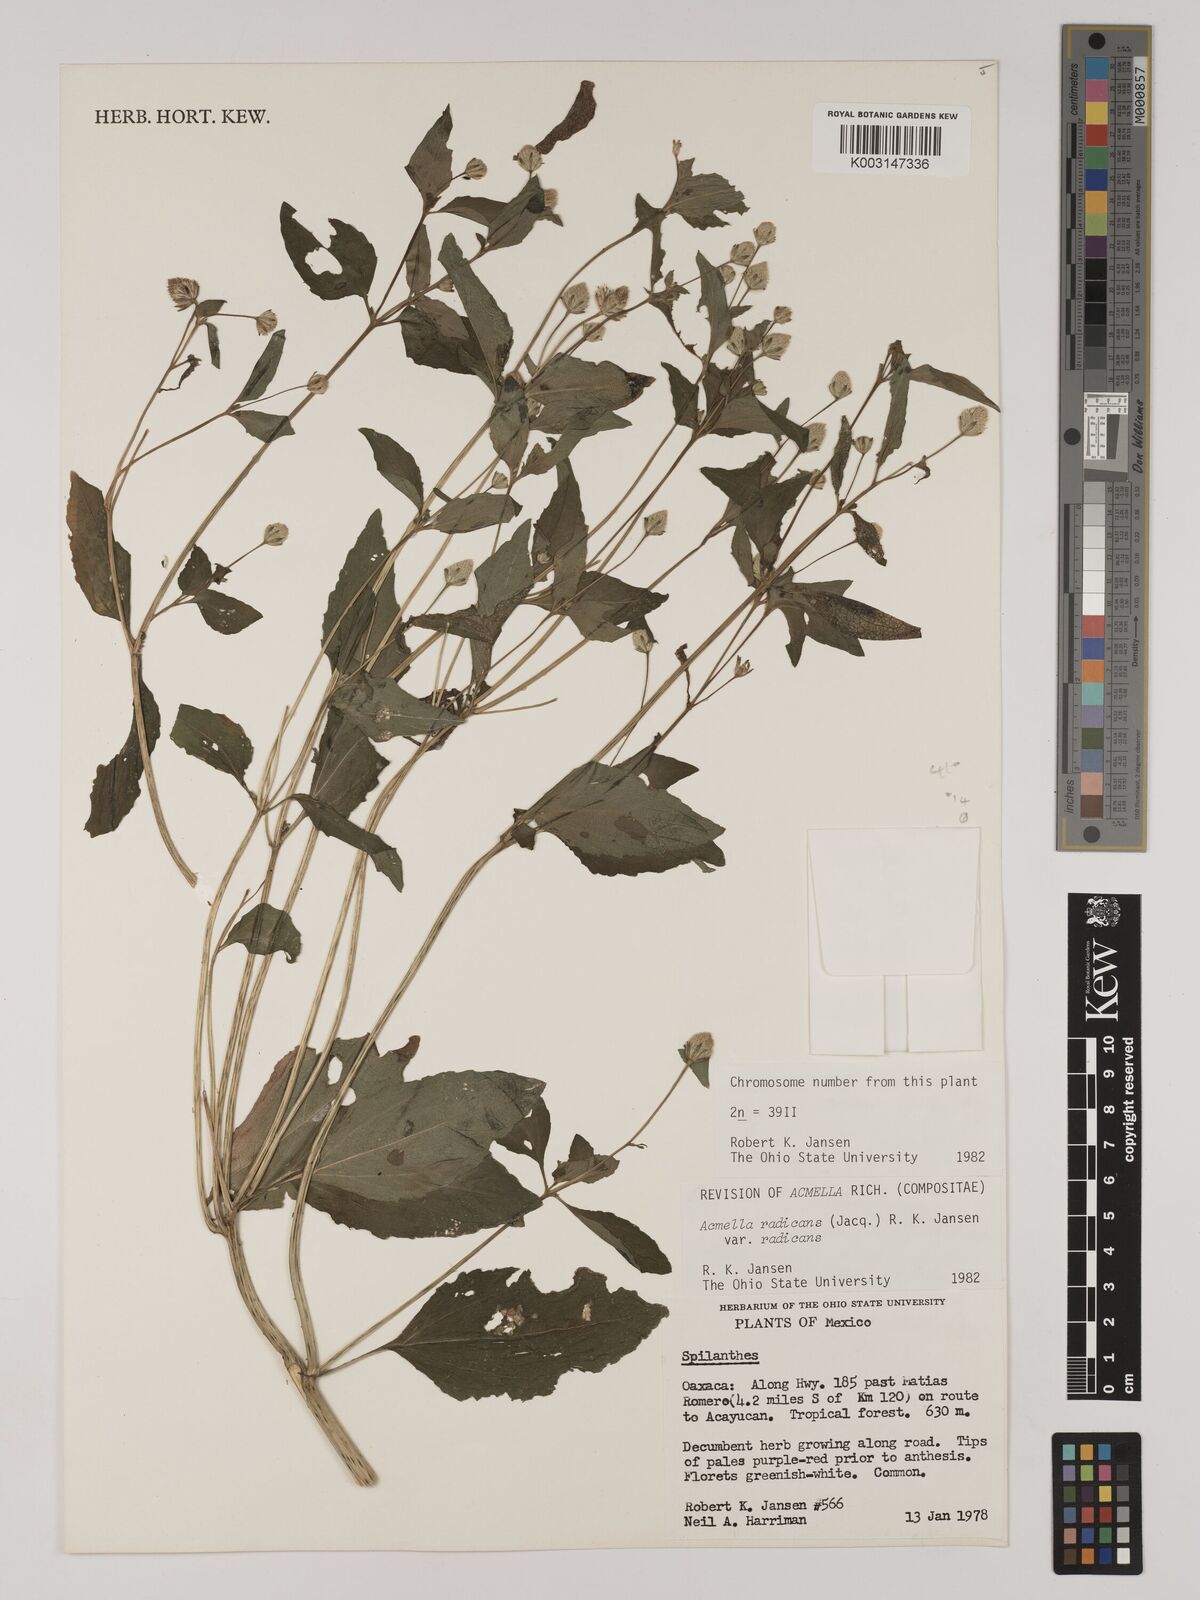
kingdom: Plantae
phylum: Tracheophyta
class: Magnoliopsida
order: Asterales
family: Asteraceae
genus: Acmella
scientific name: Acmella radicans
